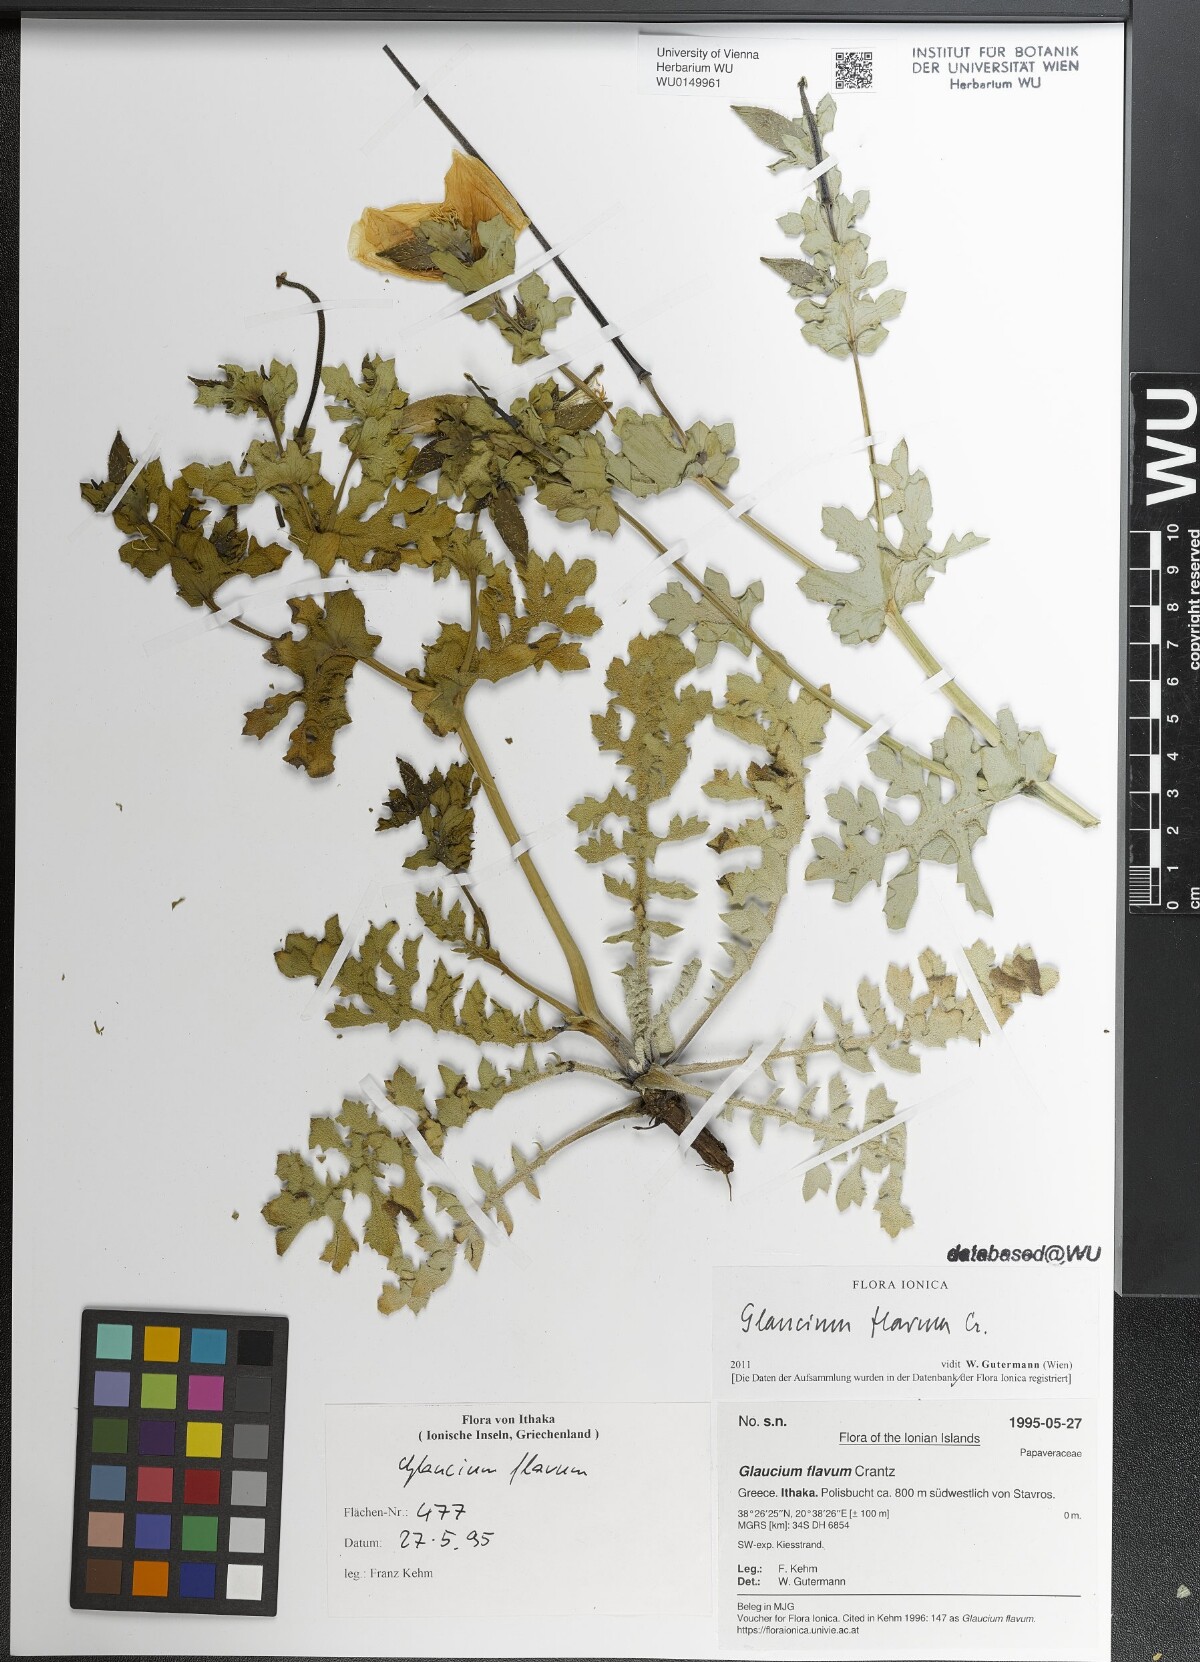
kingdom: Plantae
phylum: Tracheophyta
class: Magnoliopsida
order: Ranunculales
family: Papaveraceae
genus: Glaucium
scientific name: Glaucium flavum
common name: Yellow horned-poppy
